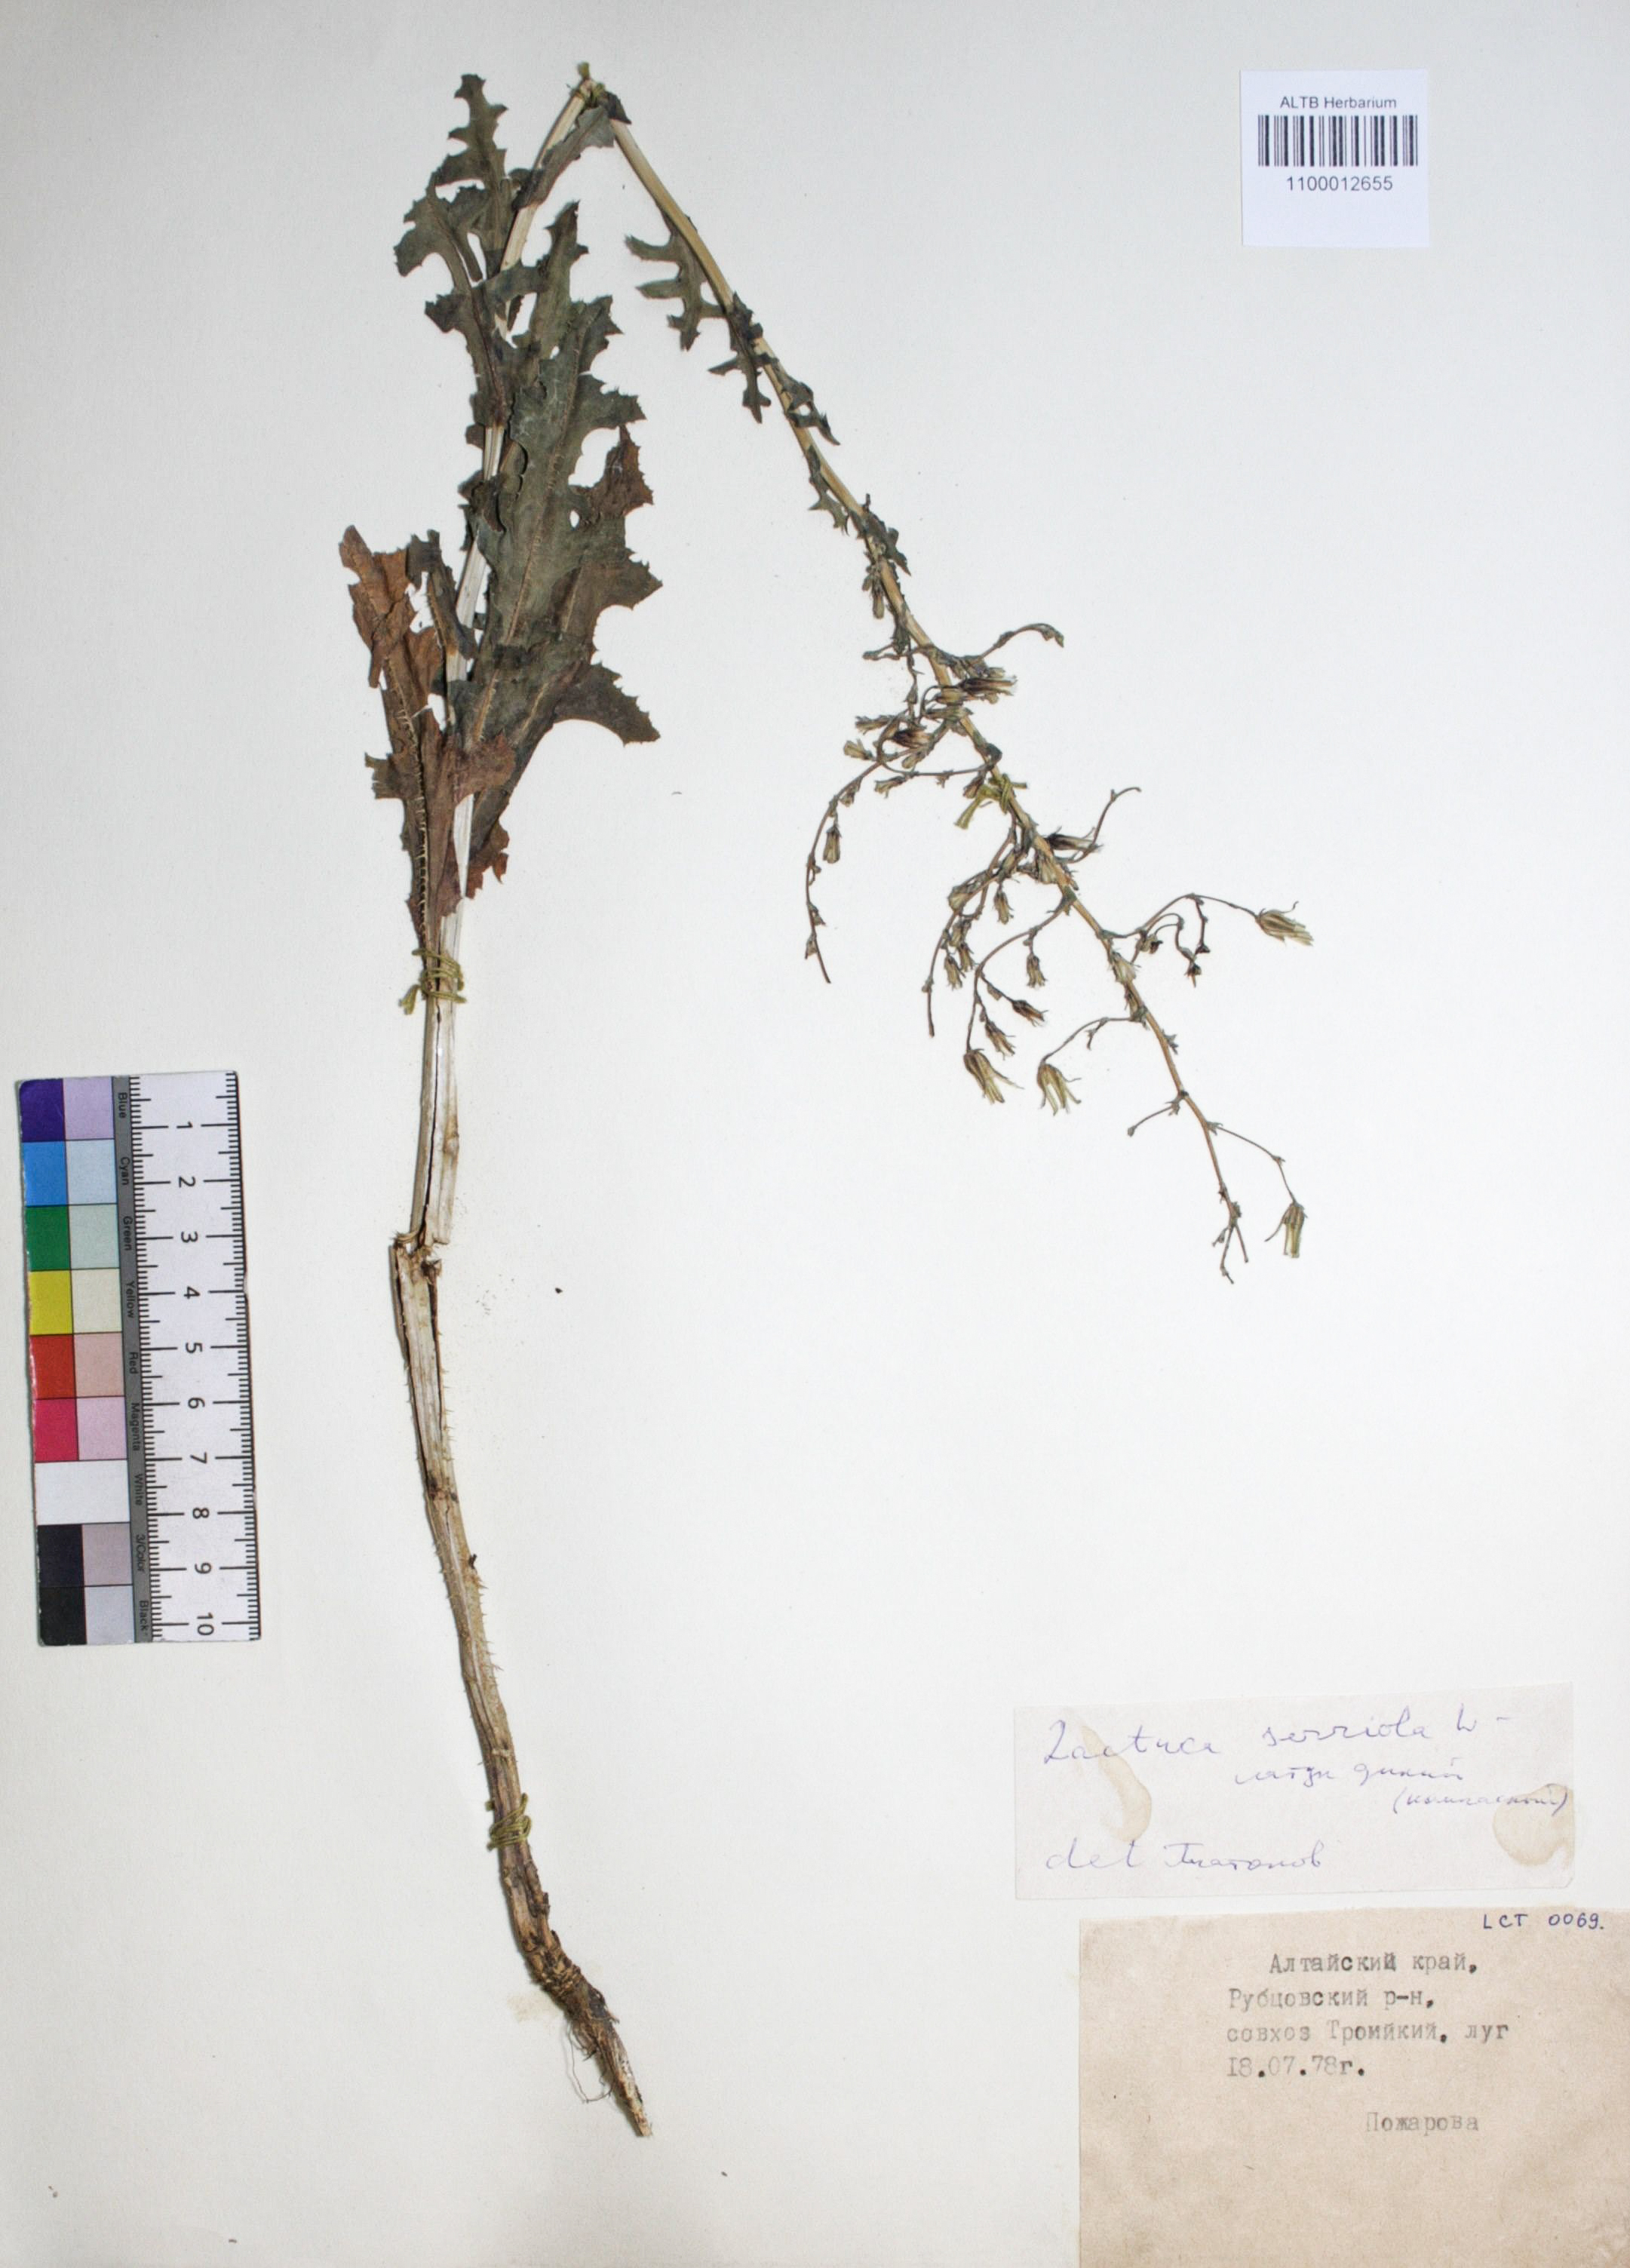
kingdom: Plantae
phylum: Tracheophyta
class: Magnoliopsida
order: Asterales
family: Asteraceae
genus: Lactuca
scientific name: Lactuca serriola
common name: Prickly lettuce
